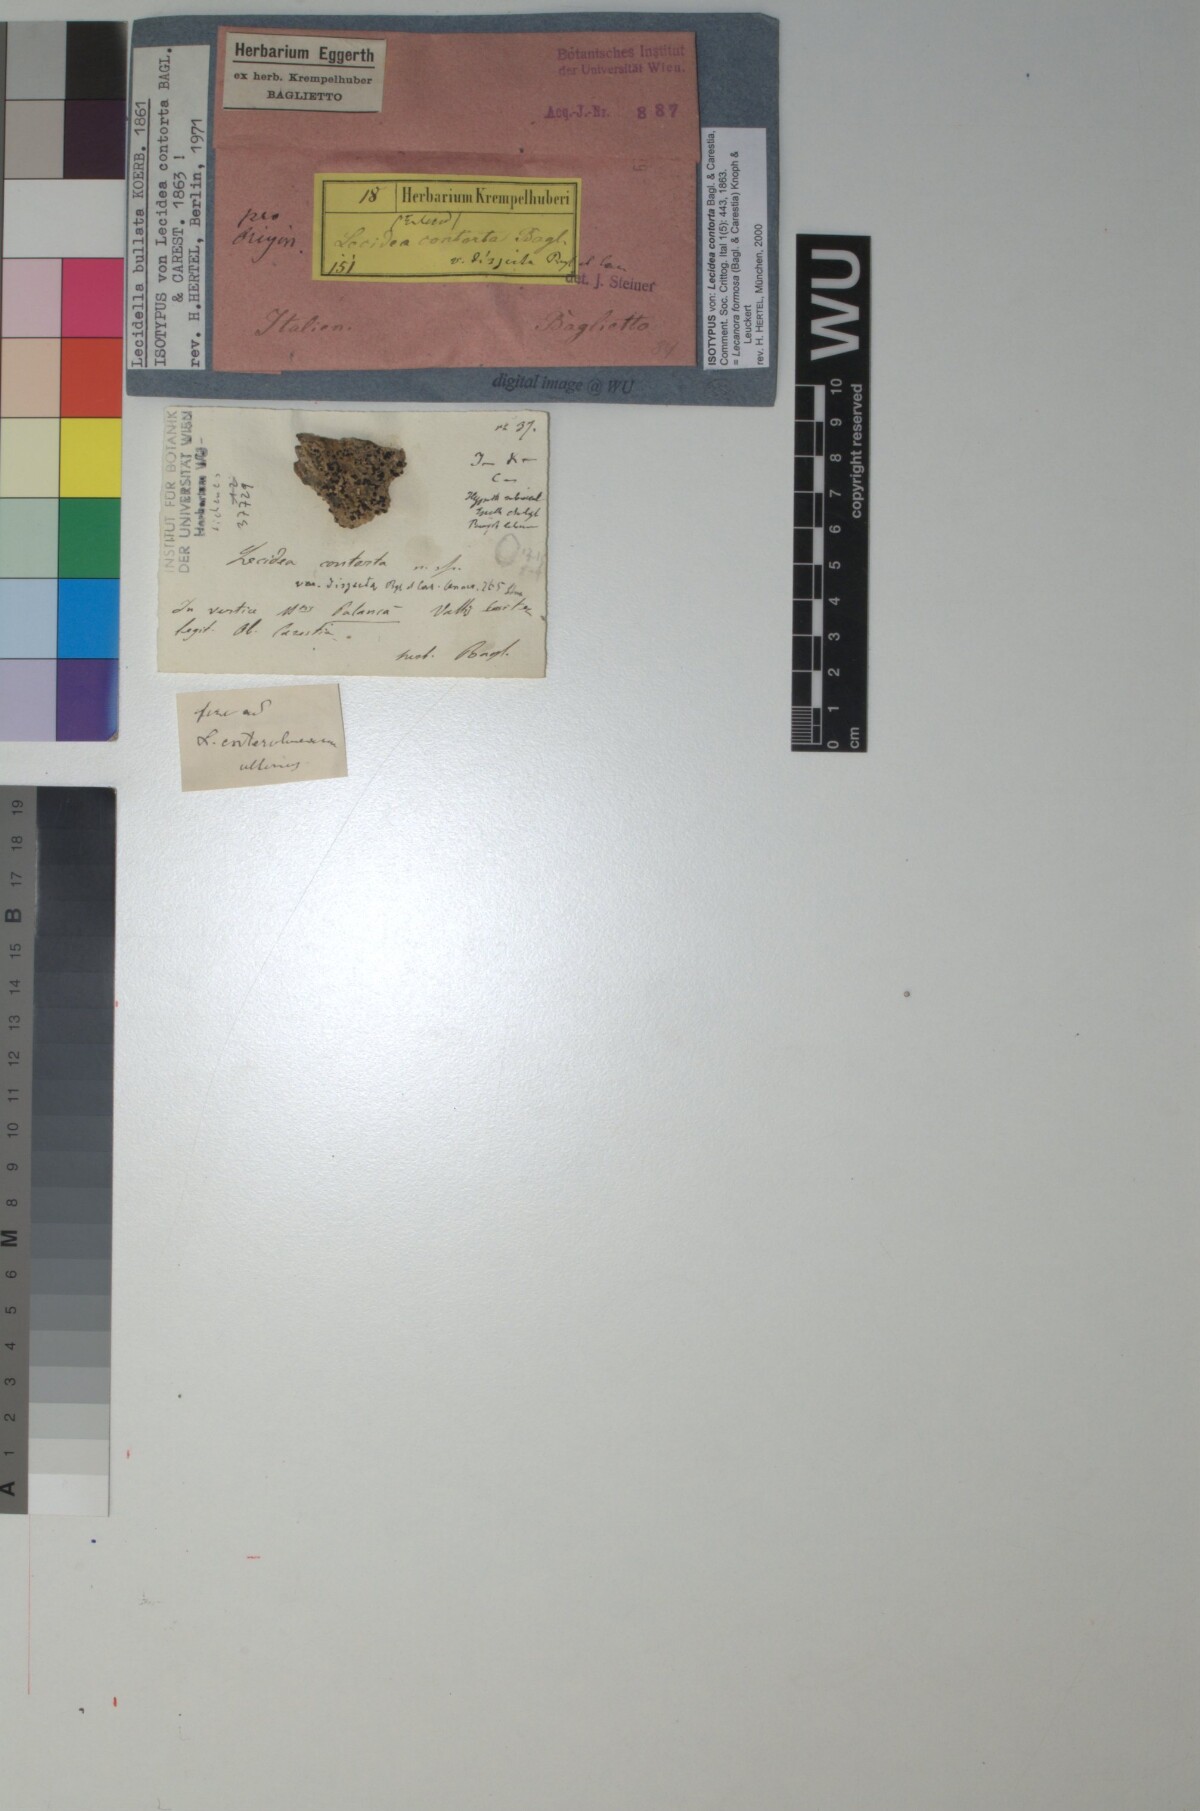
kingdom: Fungi
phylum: Ascomycota
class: Lecanoromycetes
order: Lecanorales
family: Lecanoraceae
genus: Lecanora
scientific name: Lecanora formosa
